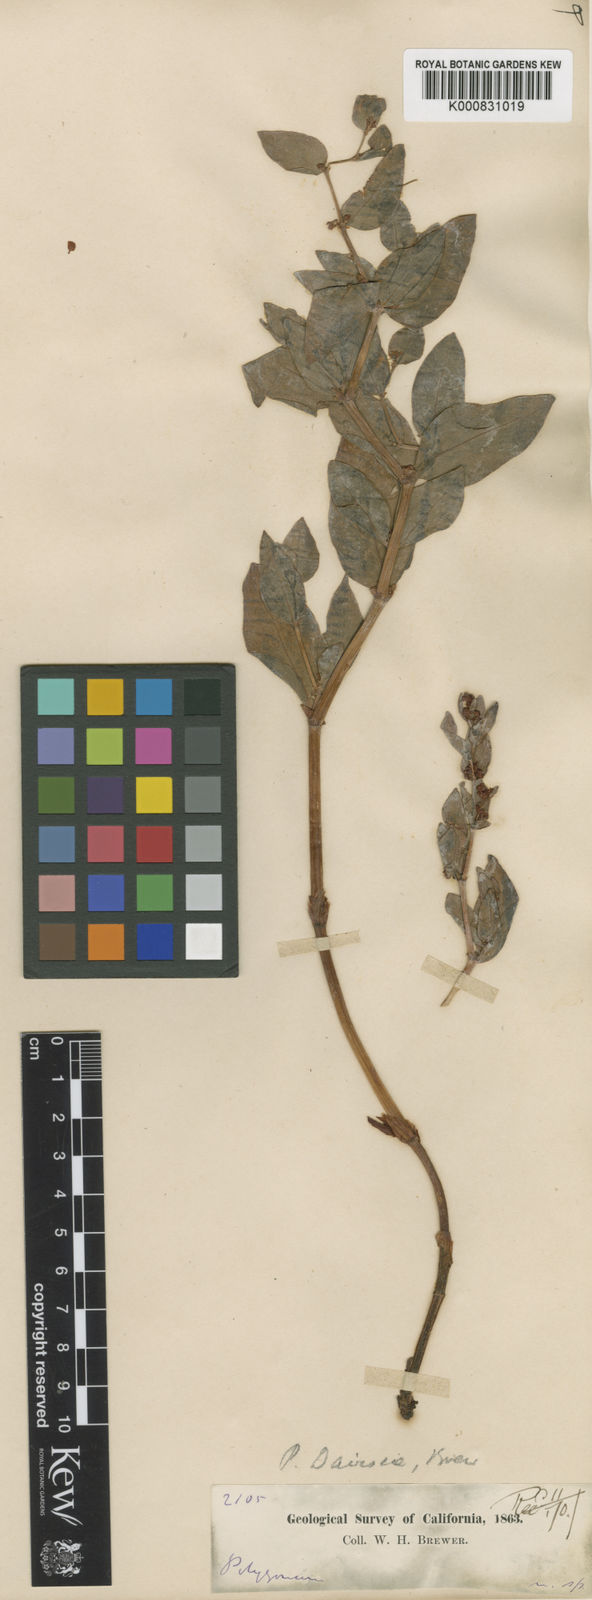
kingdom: Plantae
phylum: Tracheophyta
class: Magnoliopsida
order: Caryophyllales
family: Polygonaceae
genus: Koenigia
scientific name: Koenigia davisiae
